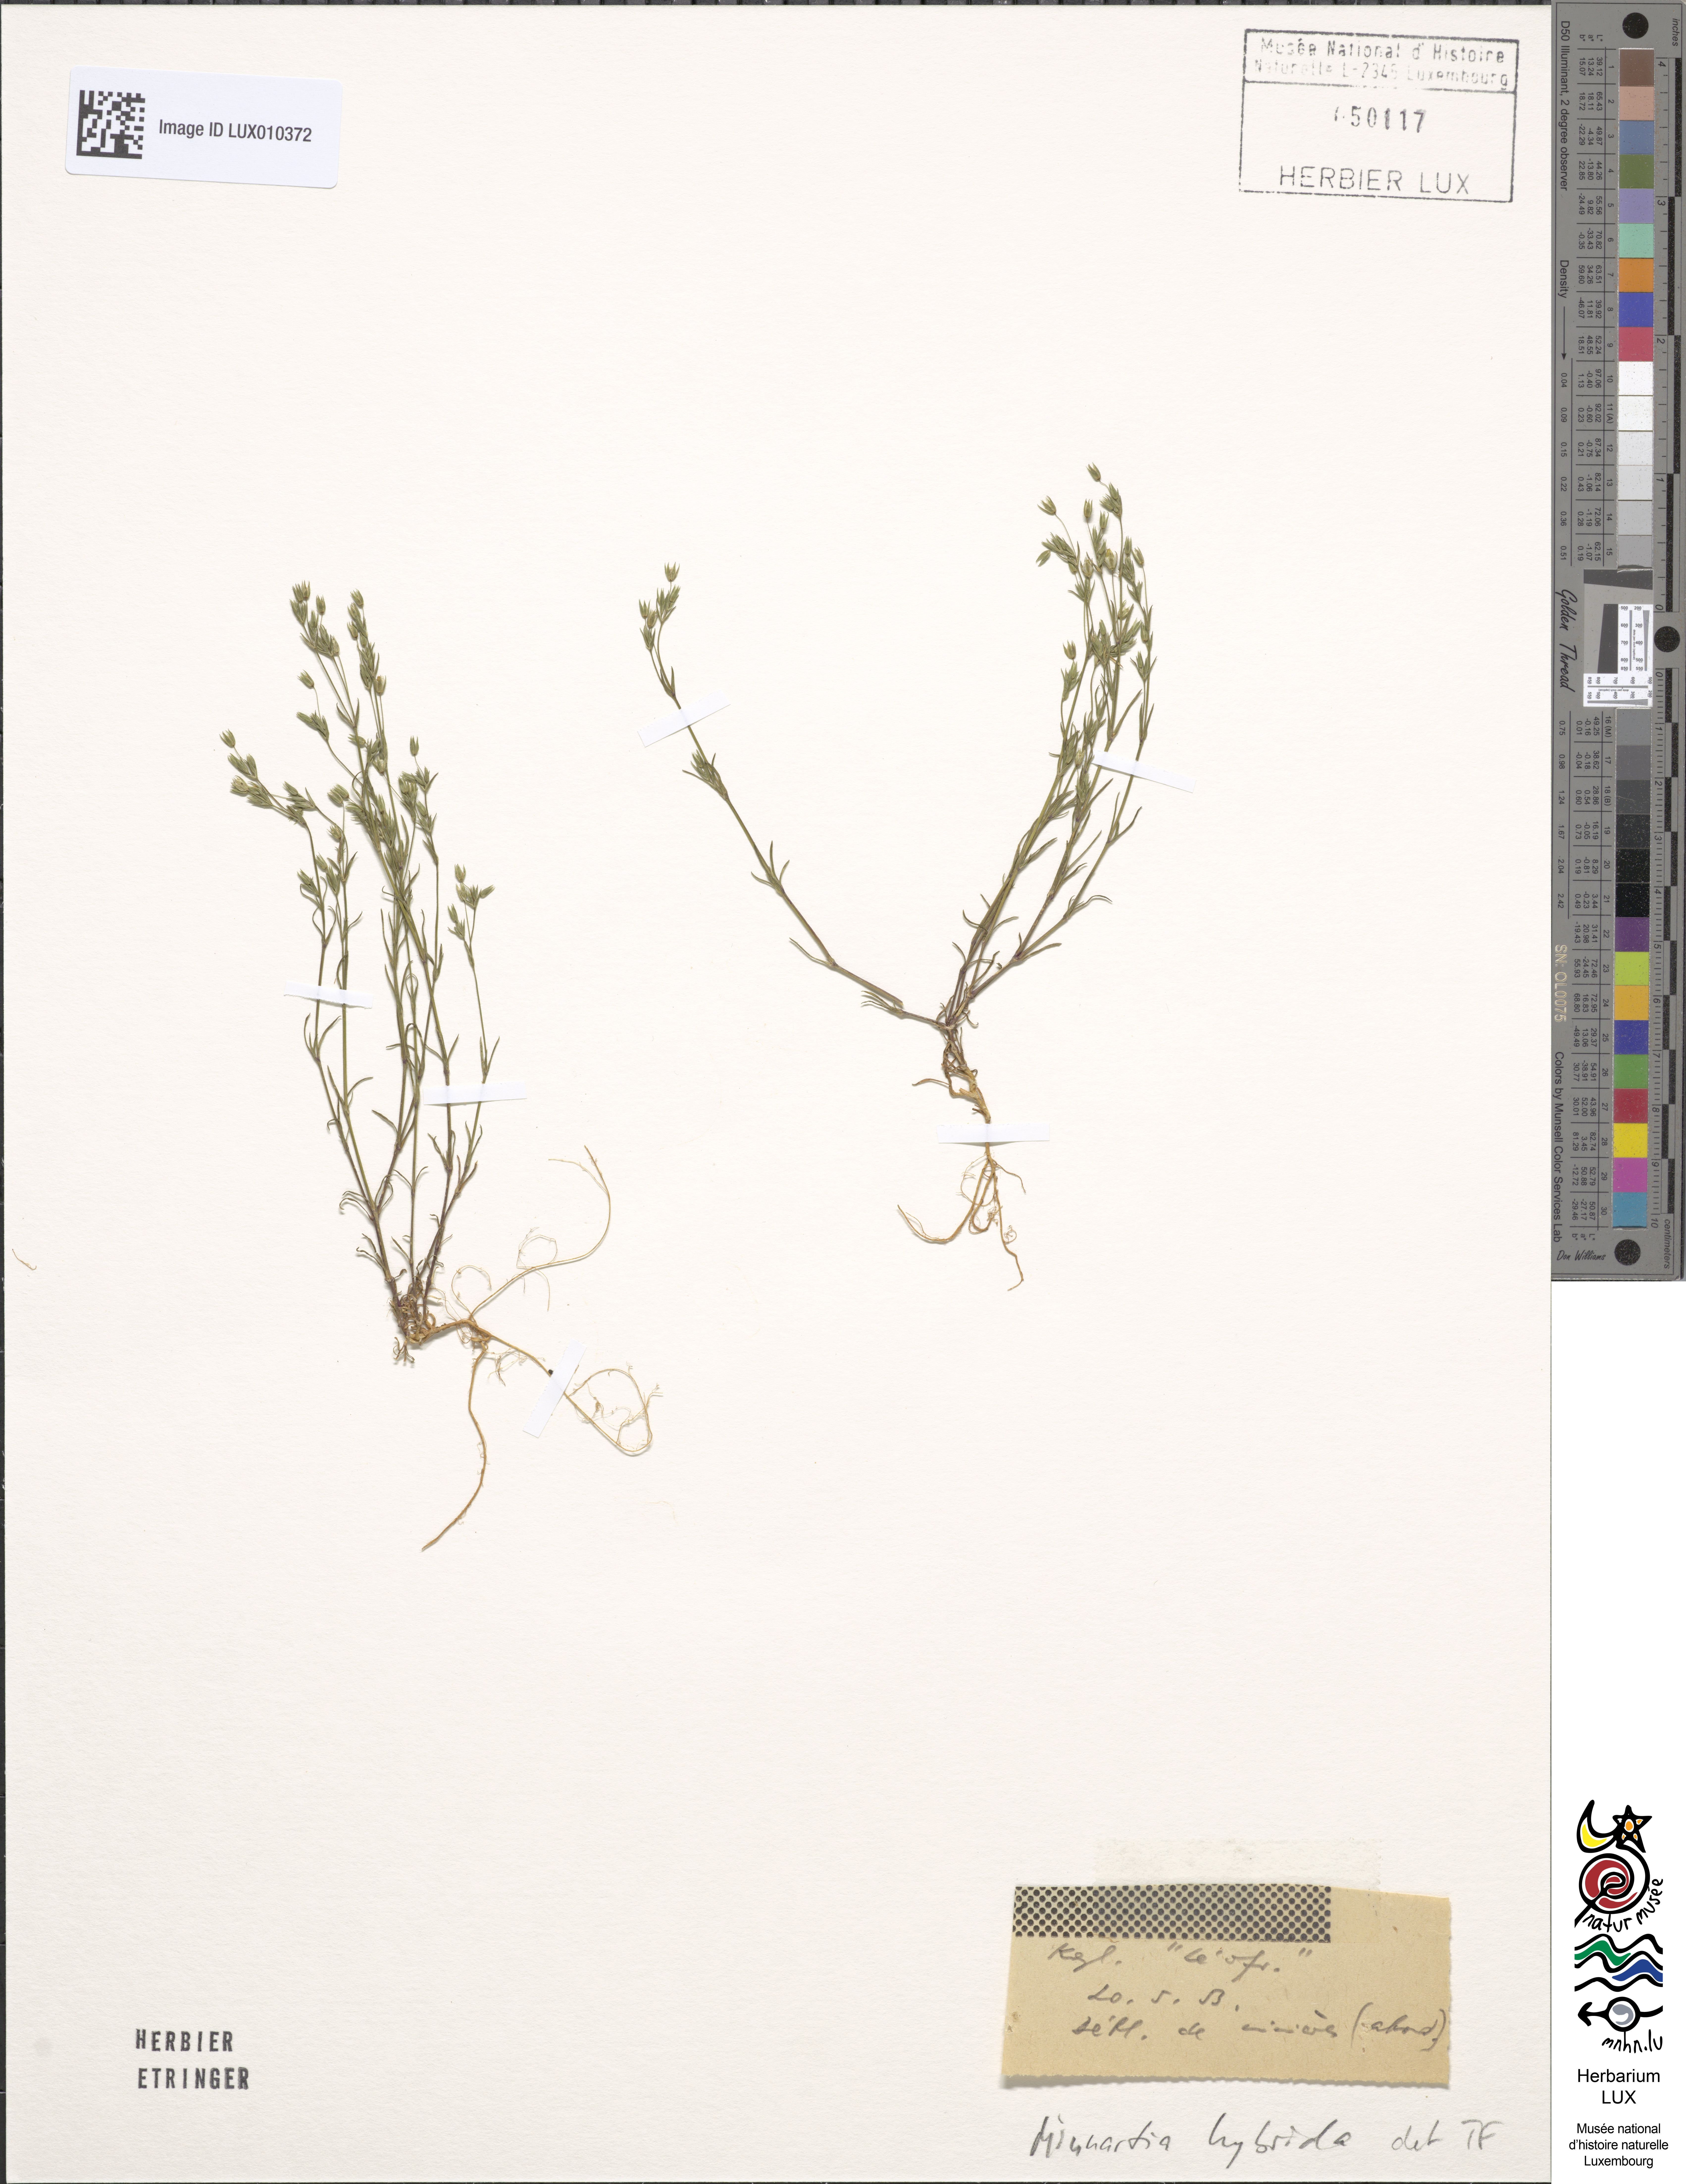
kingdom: Plantae
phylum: Tracheophyta
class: Magnoliopsida
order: Caryophyllales
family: Caryophyllaceae
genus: Sabulina
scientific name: Sabulina tenuifolia
